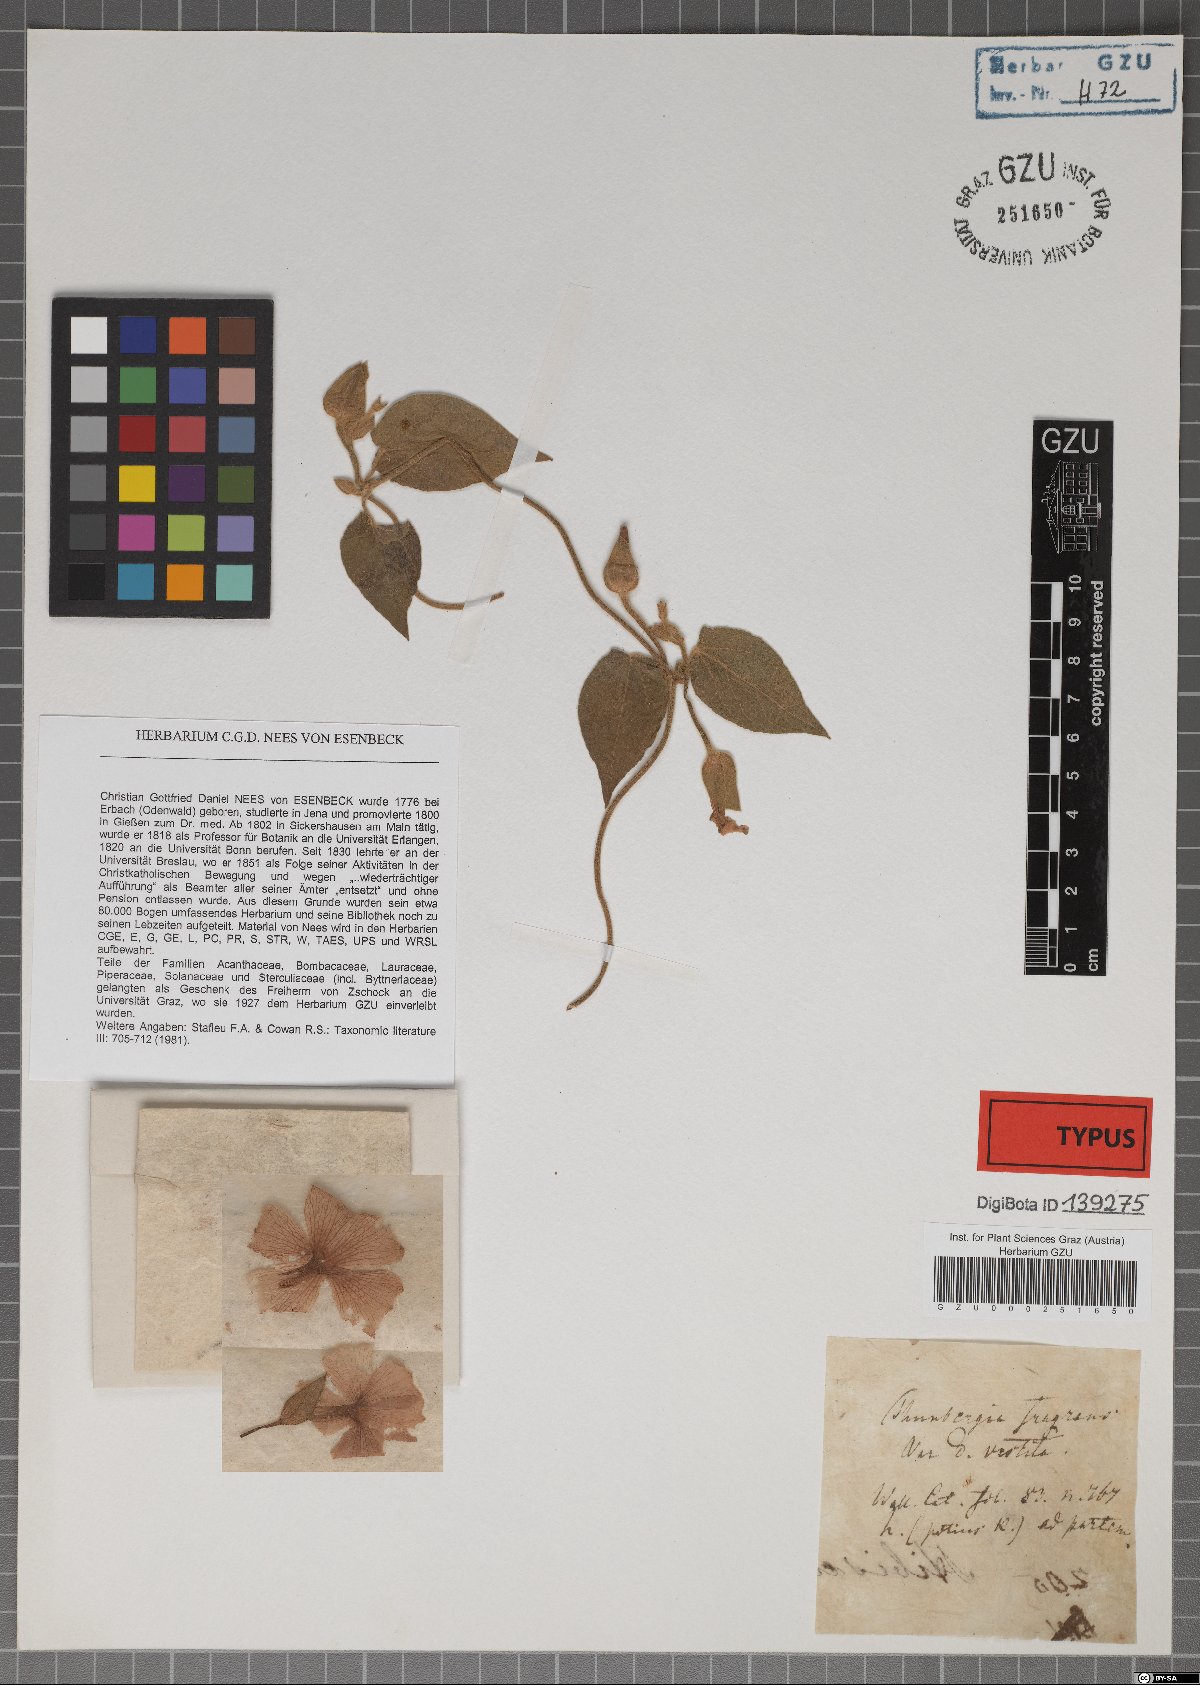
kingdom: Plantae
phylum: Tracheophyta
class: Magnoliopsida
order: Lamiales
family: Acanthaceae
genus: Thunbergia
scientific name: Thunbergia laevis
